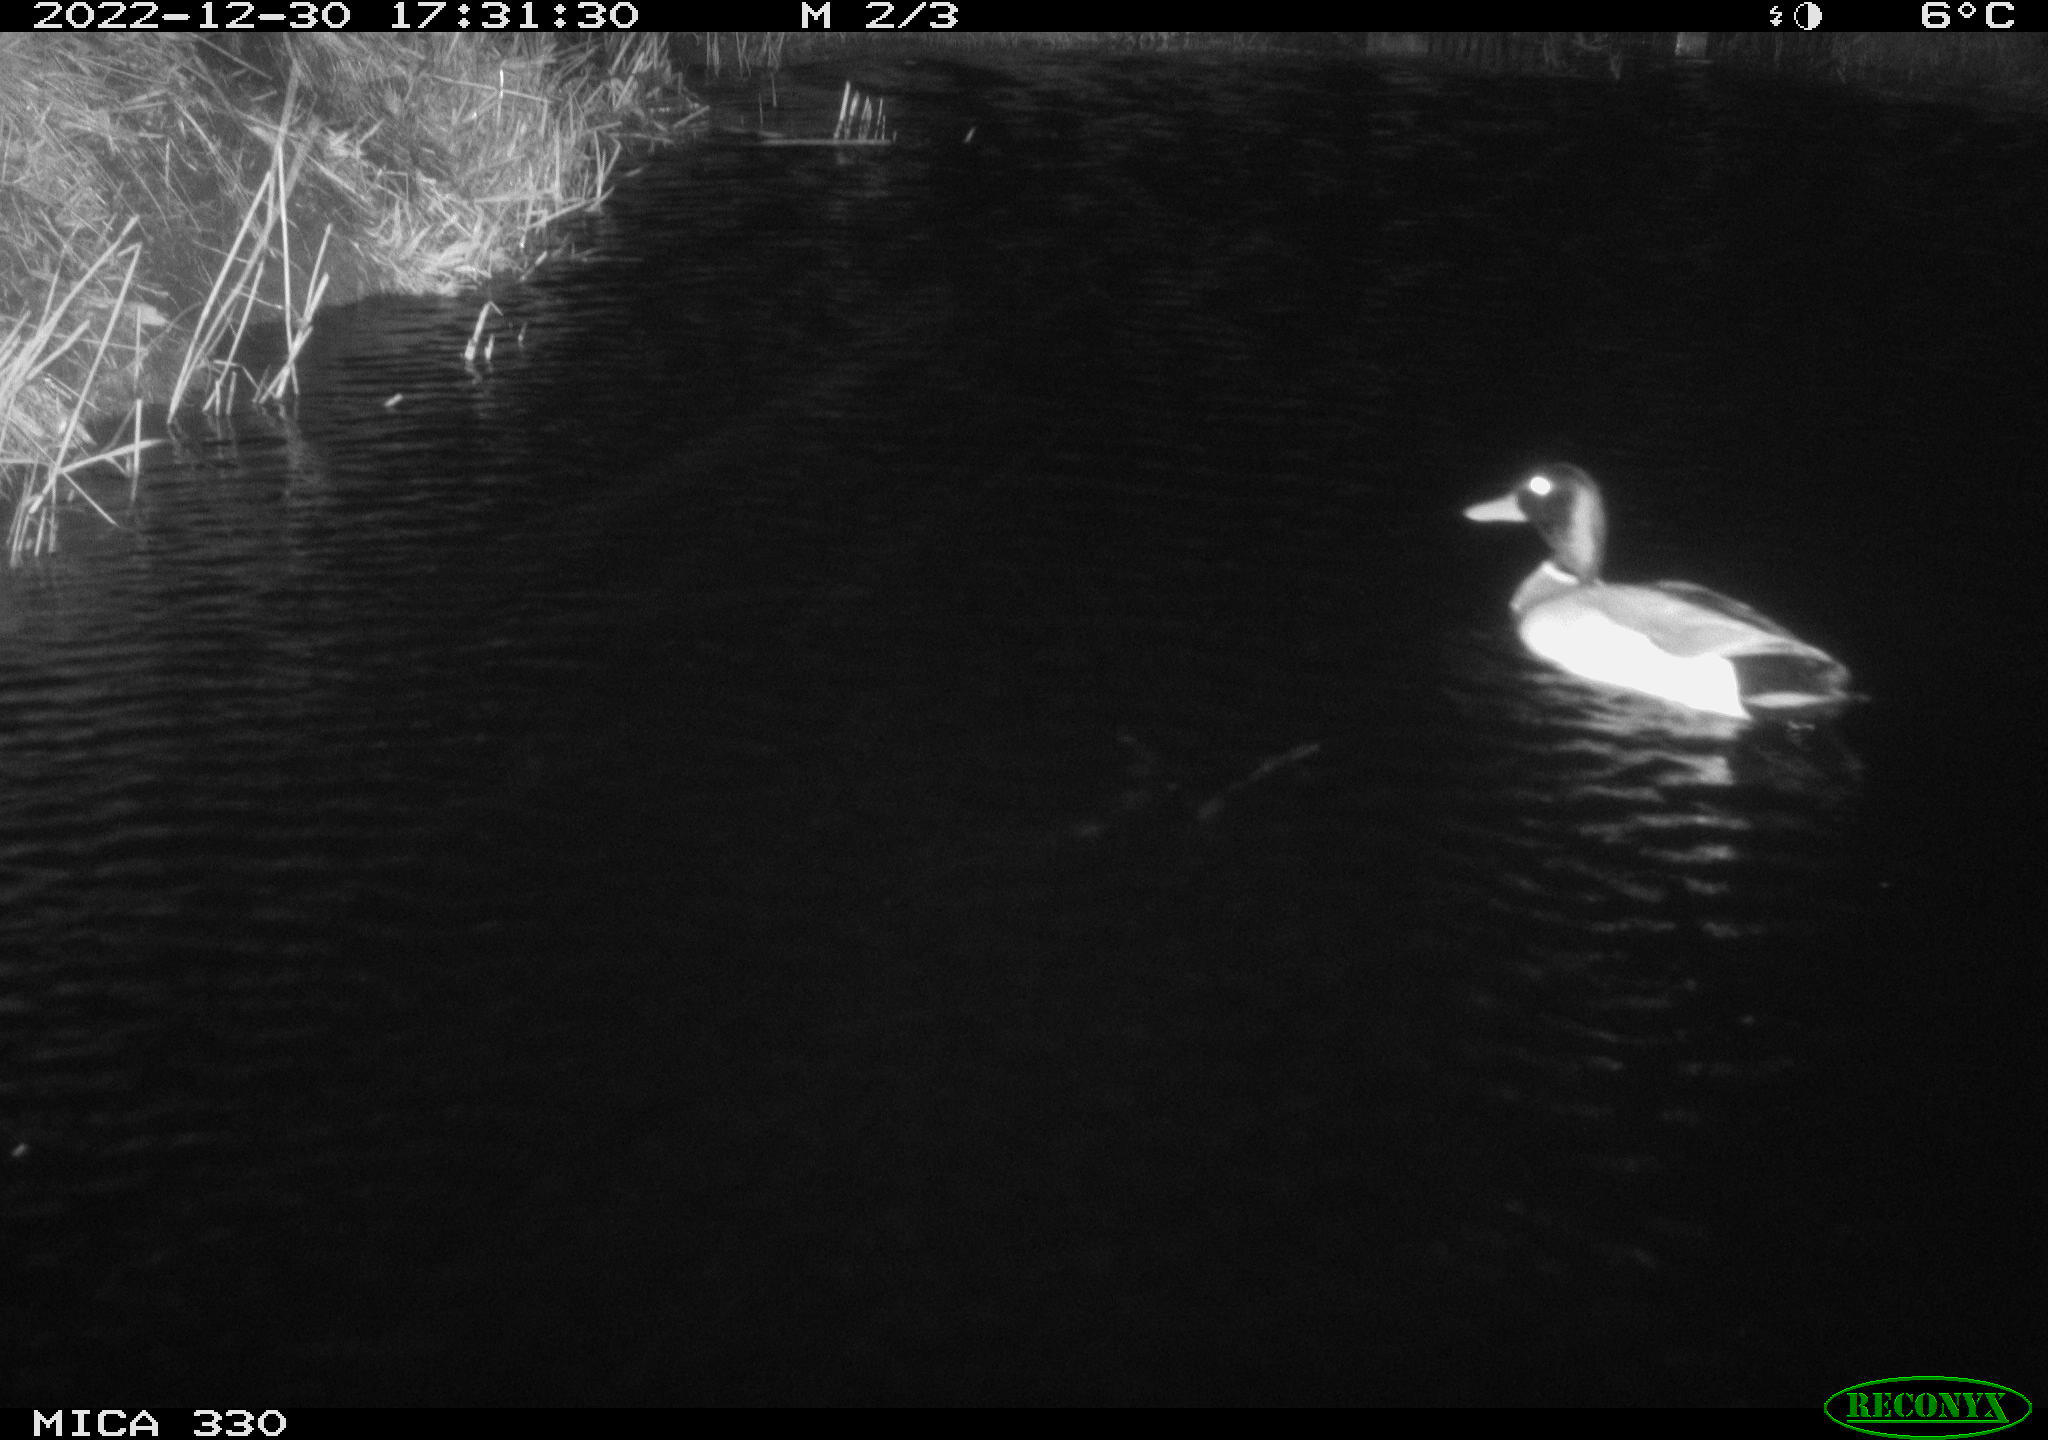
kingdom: Animalia
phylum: Chordata
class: Aves
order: Anseriformes
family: Anatidae
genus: Anas
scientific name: Anas
